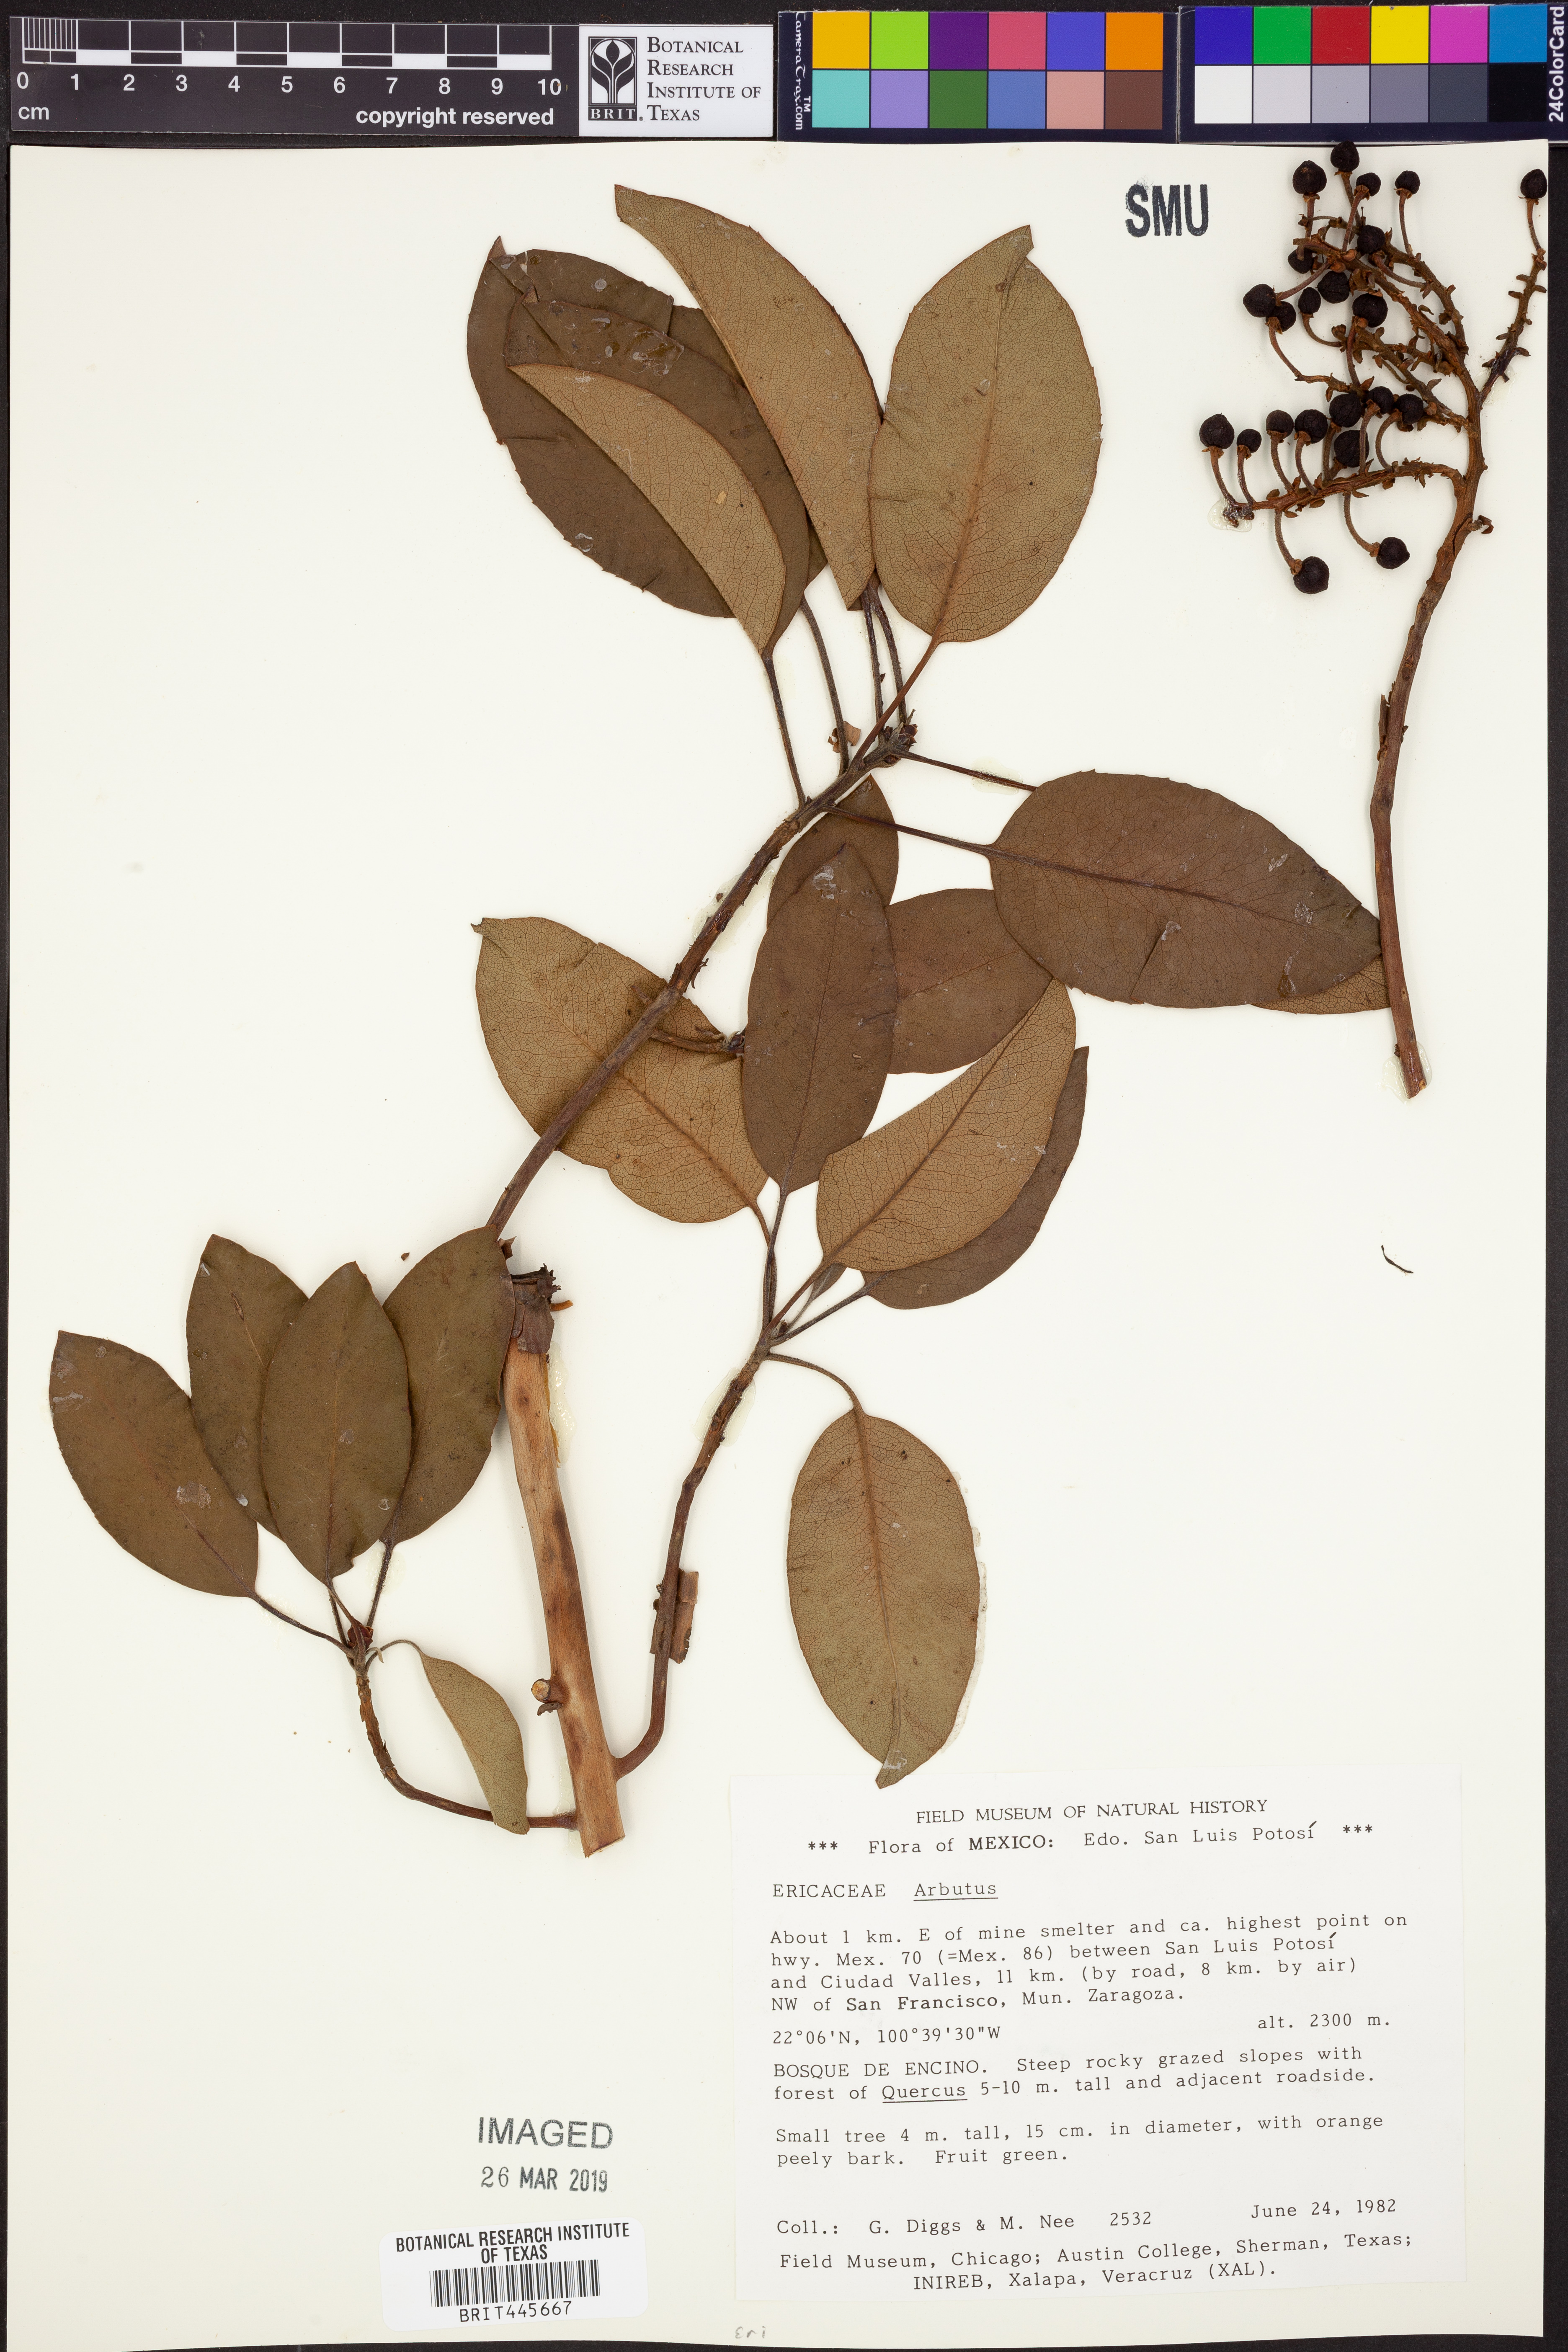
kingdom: Plantae
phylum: Tracheophyta
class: Magnoliopsida
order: Ericales
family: Ericaceae
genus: Arbutus
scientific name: Arbutus
